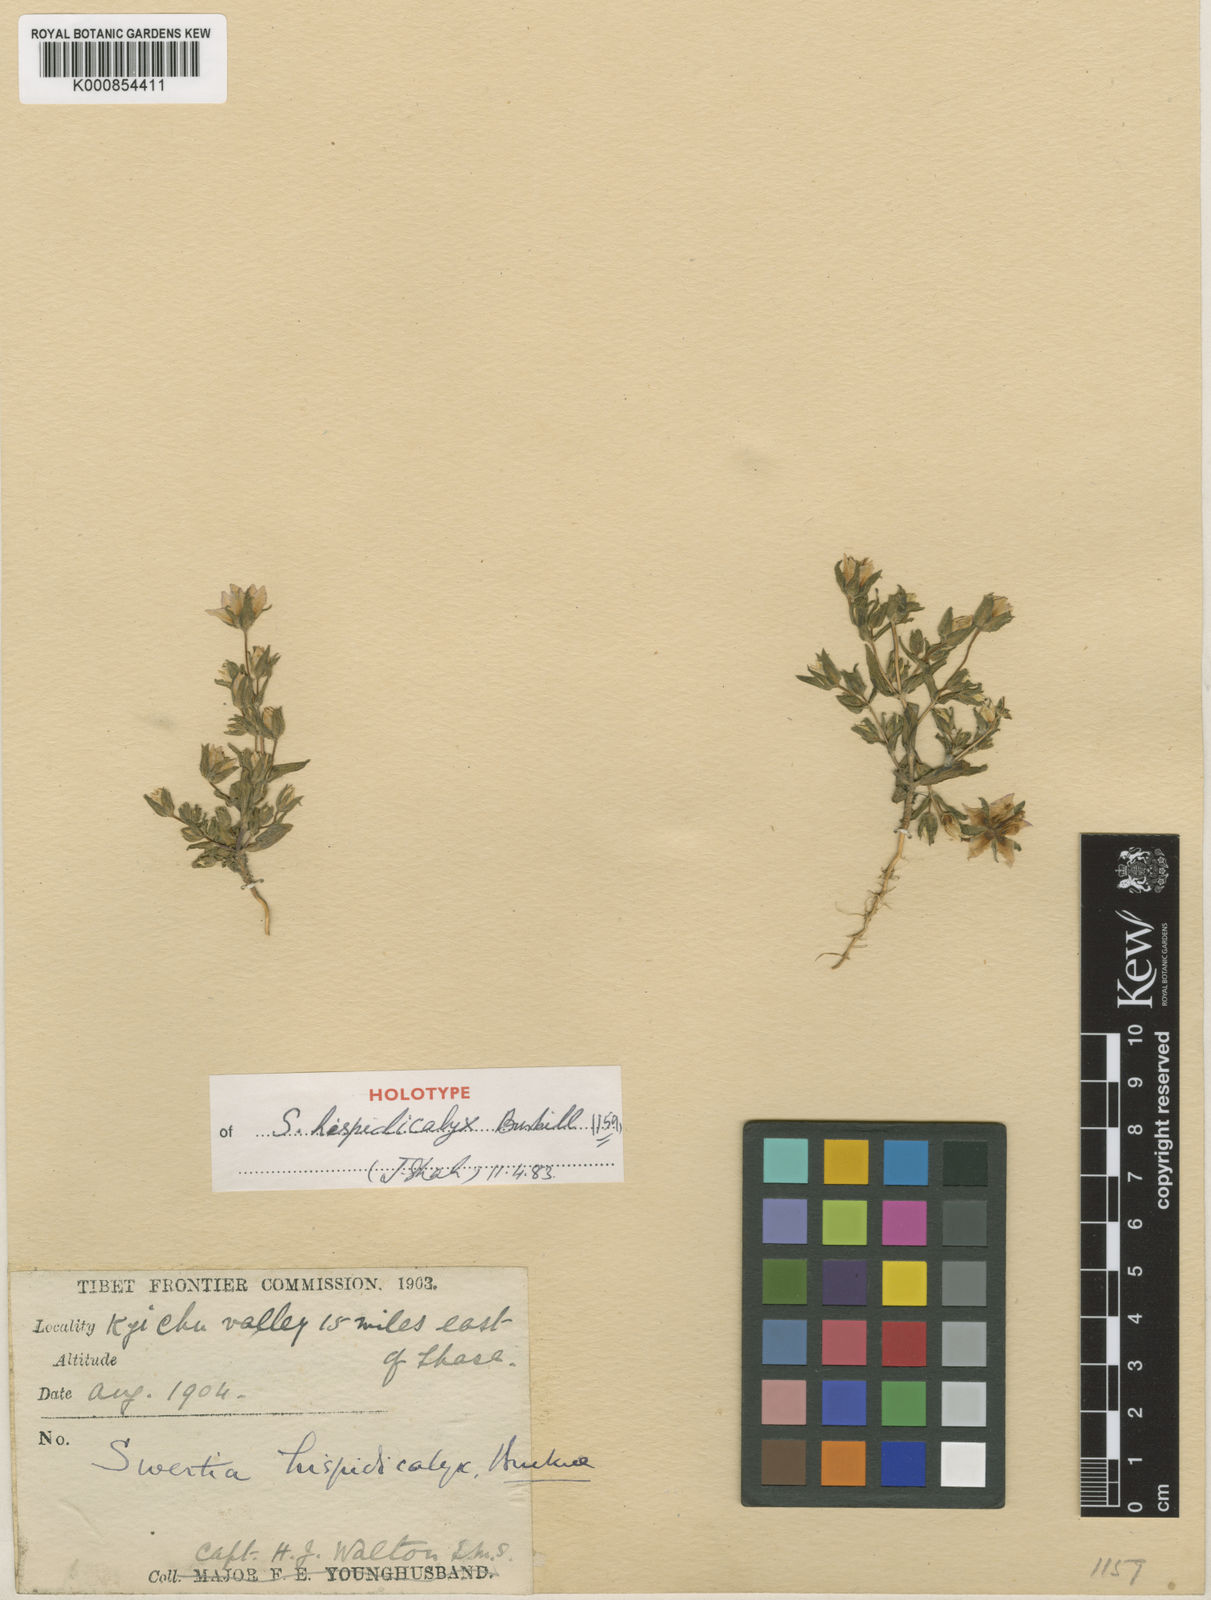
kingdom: Plantae
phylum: Tracheophyta
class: Magnoliopsida
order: Gentianales
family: Gentianaceae
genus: Swertia
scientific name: Swertia hispidicalyx
